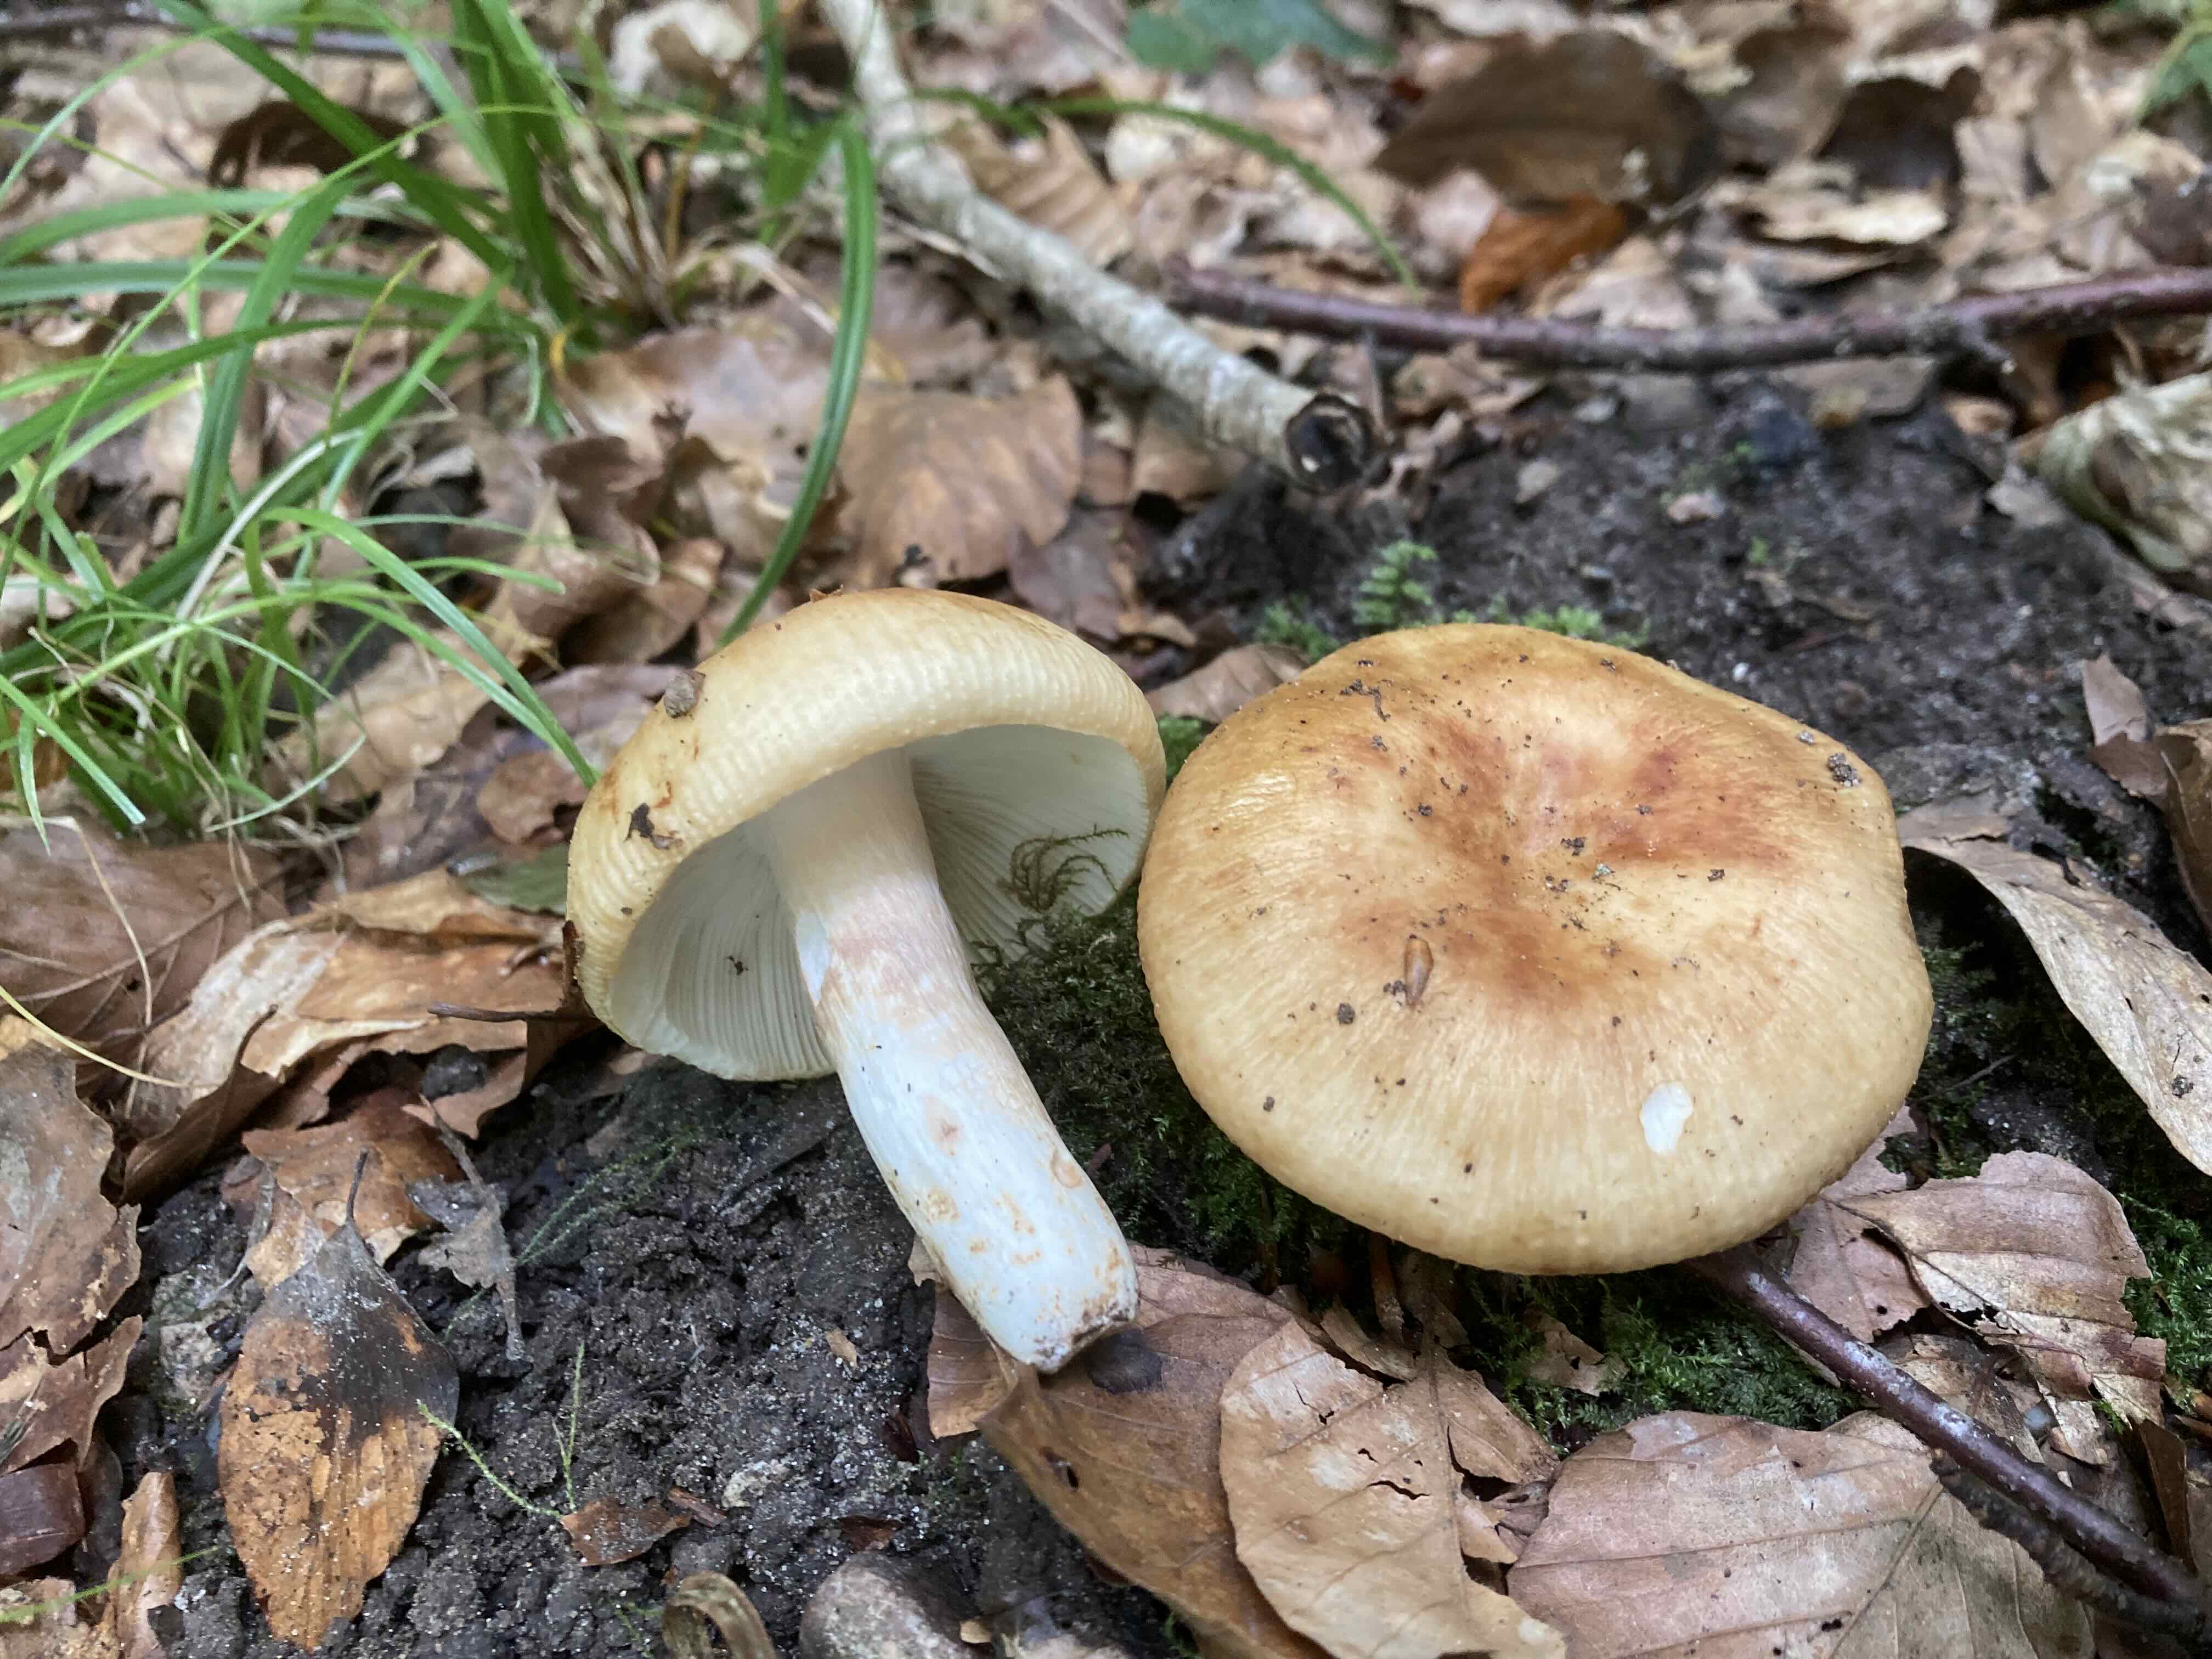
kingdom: Fungi
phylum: Basidiomycota
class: Agaricomycetes
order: Russulales
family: Russulaceae
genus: Russula
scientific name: Russula grata
